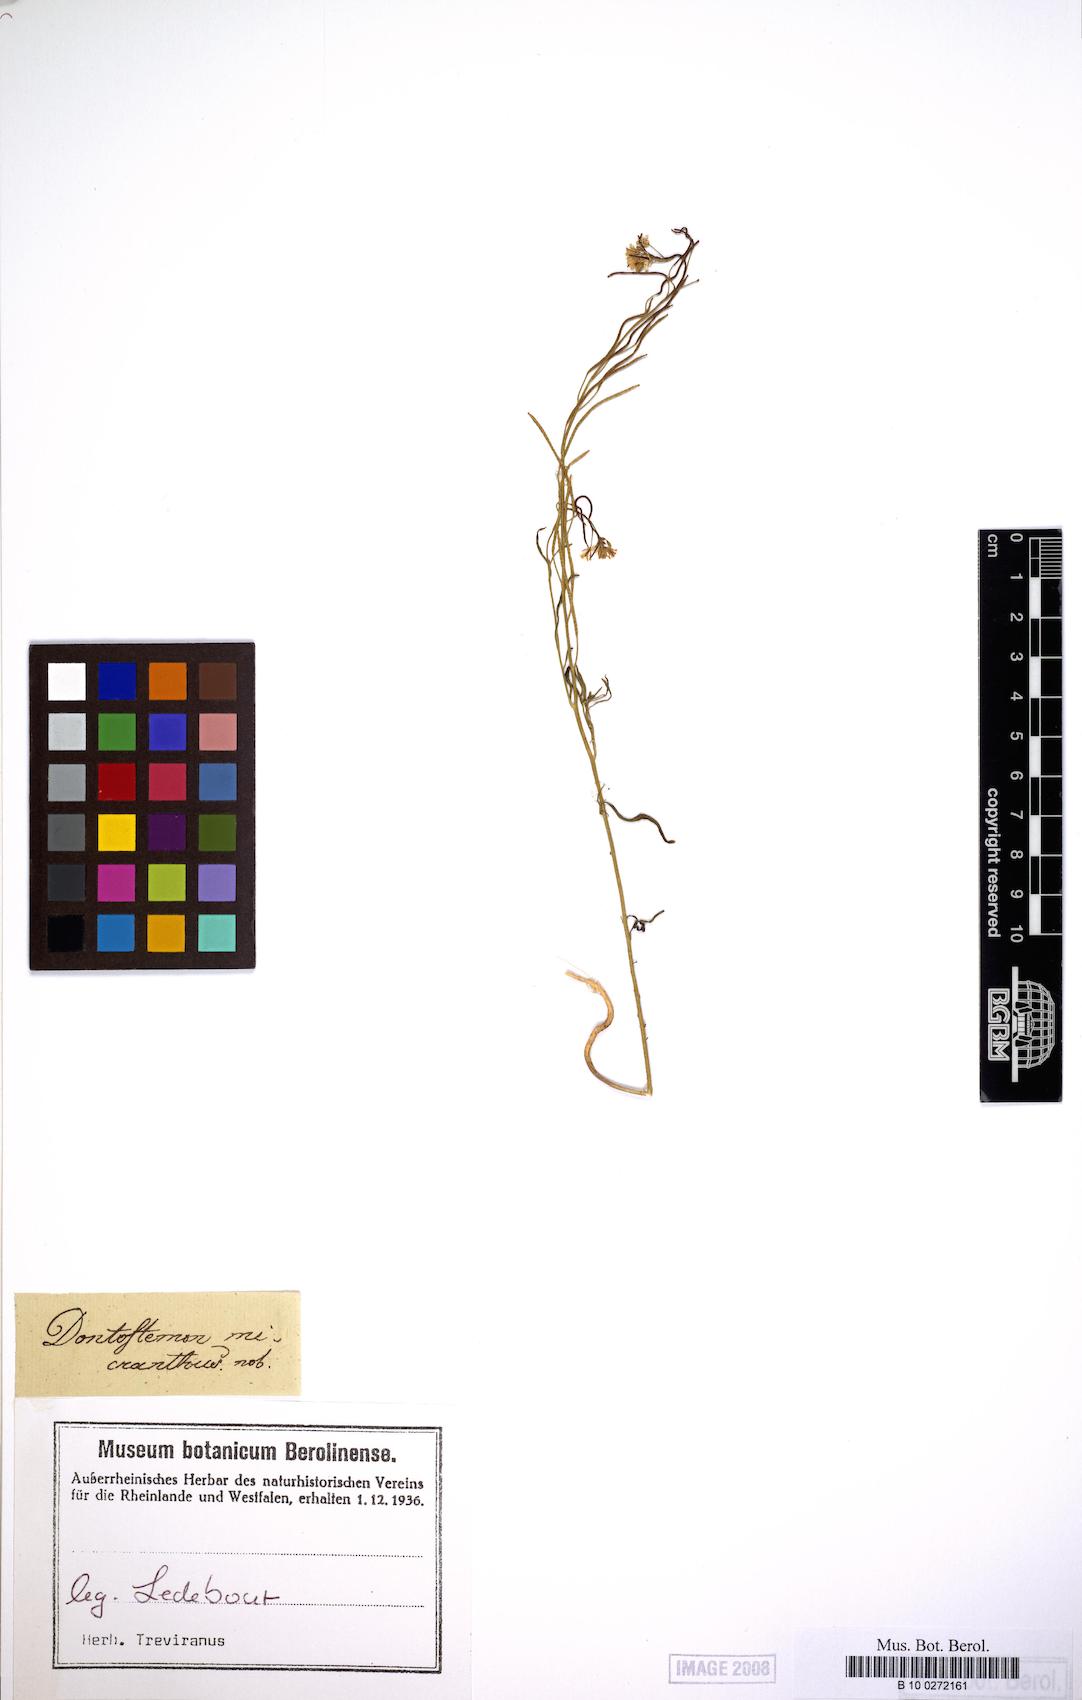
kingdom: Plantae
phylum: Tracheophyta
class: Magnoliopsida
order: Brassicales
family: Brassicaceae
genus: Dontostemon
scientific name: Dontostemon micranthus
